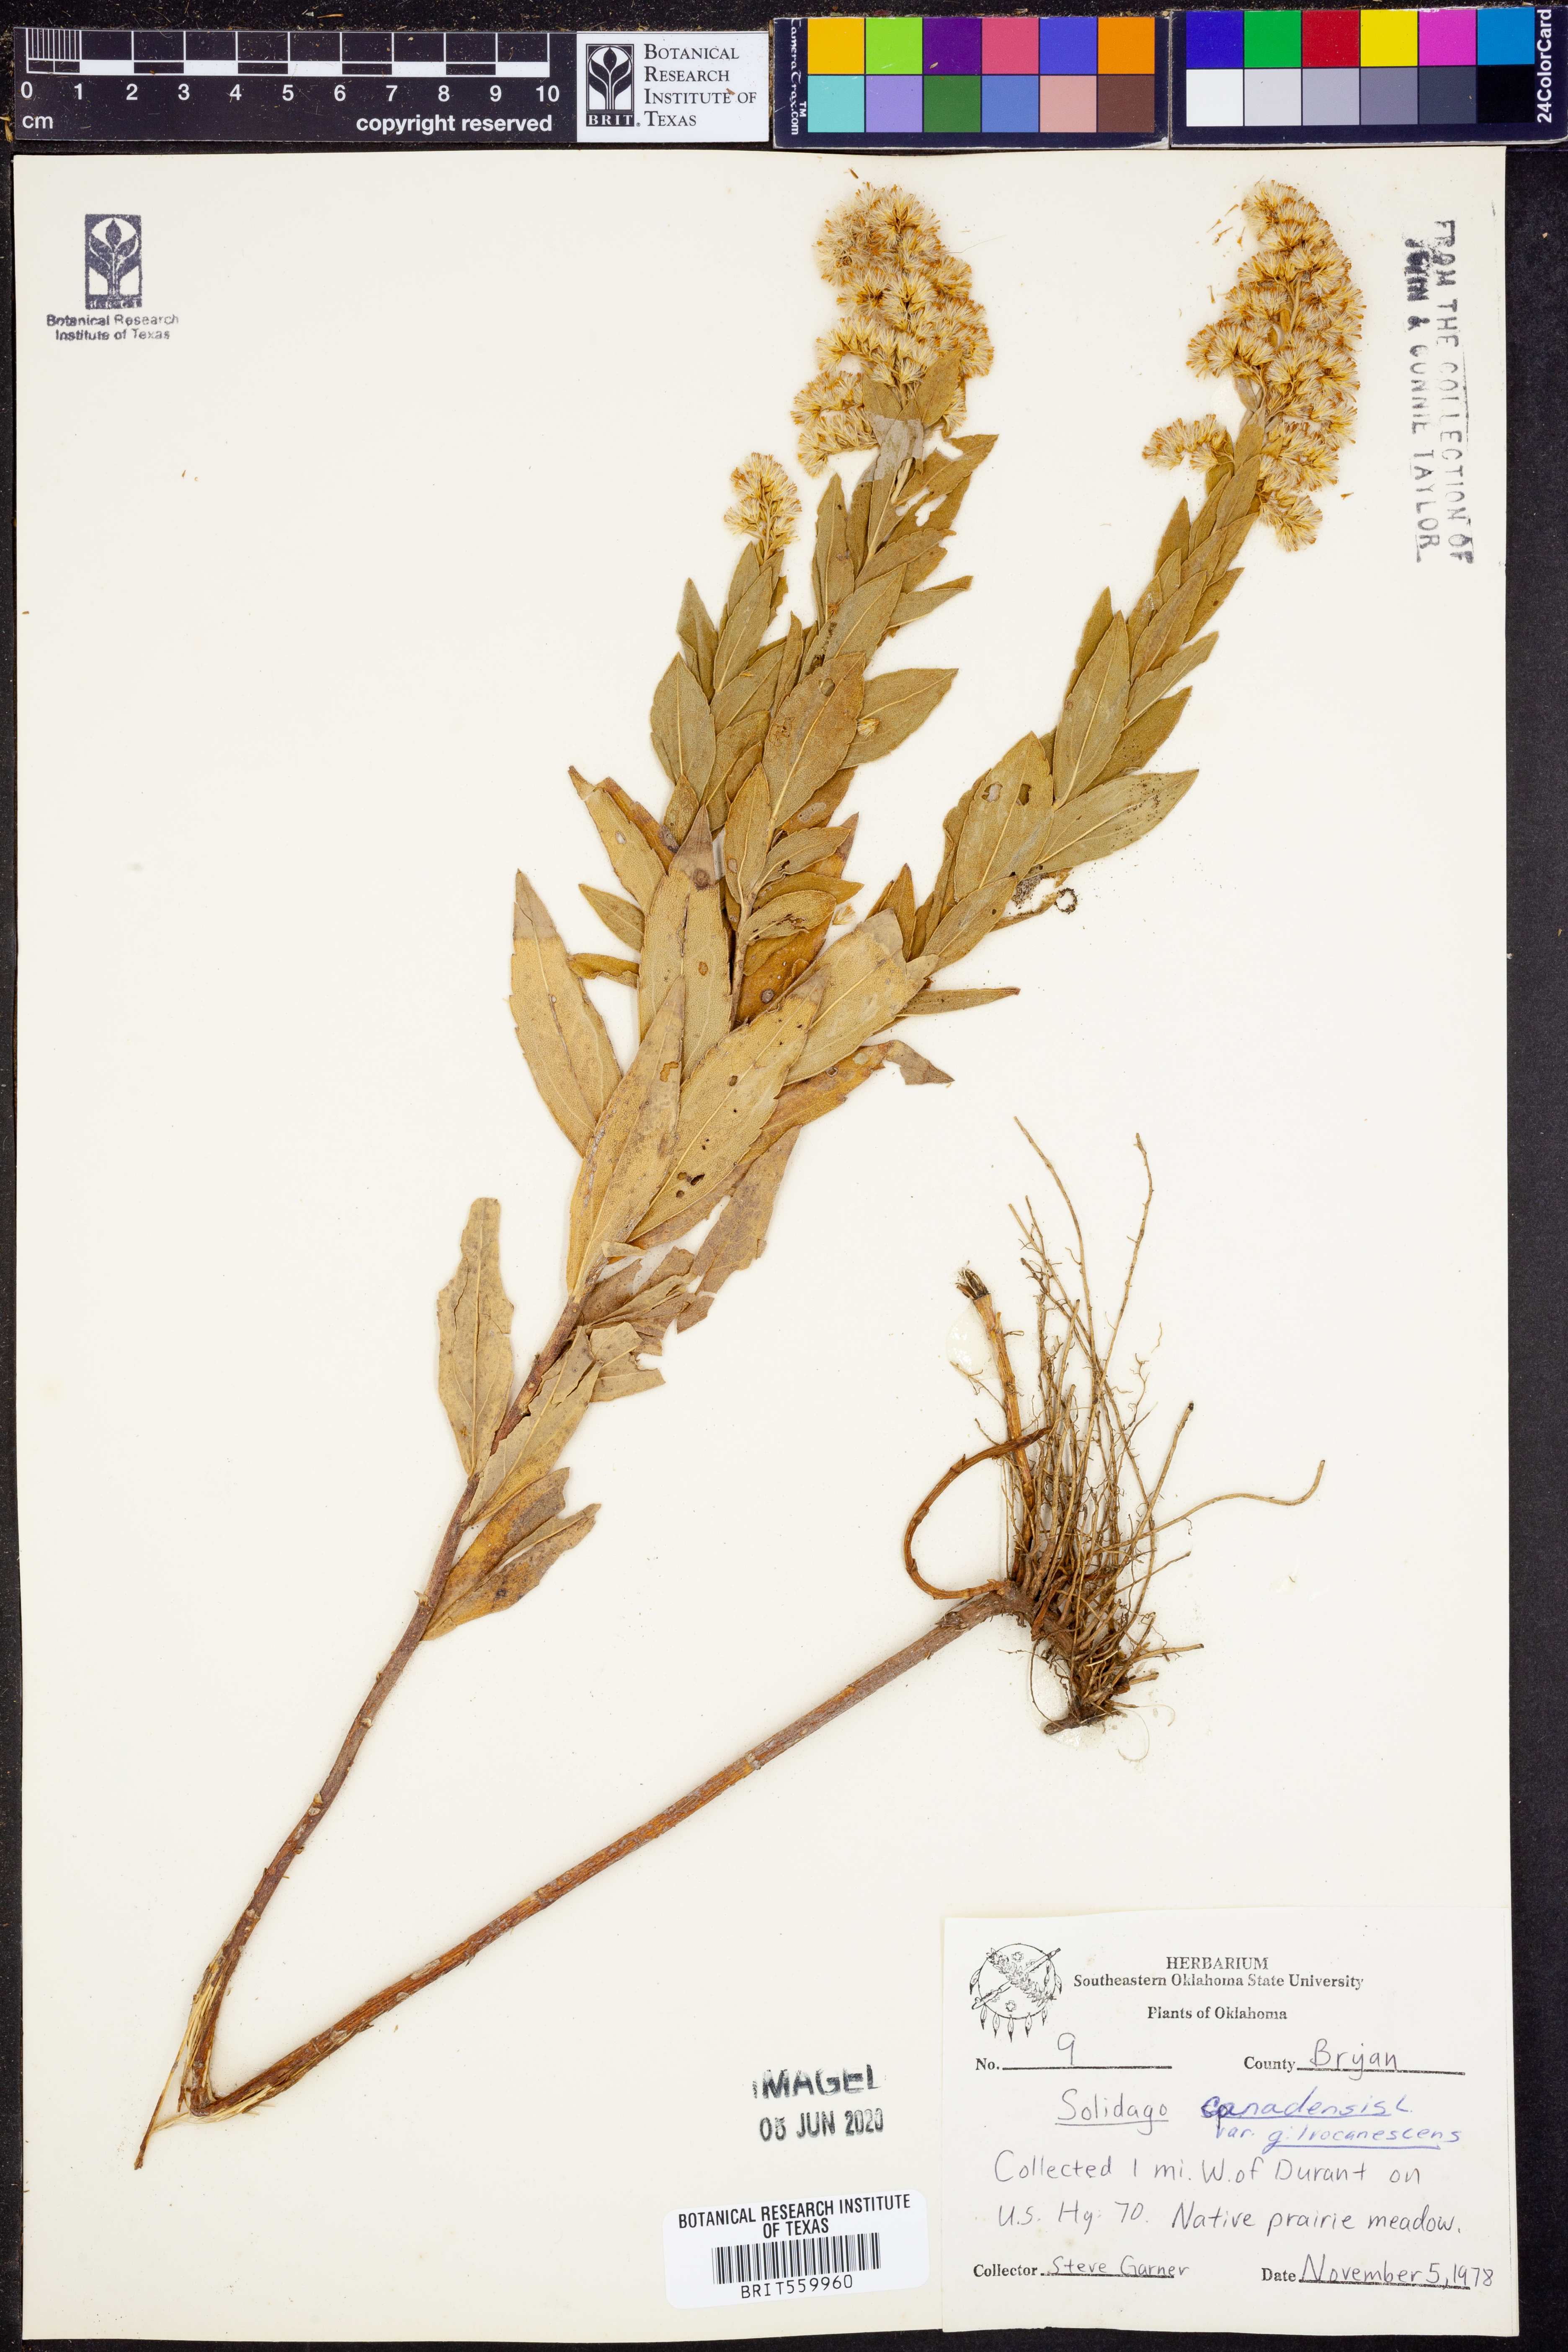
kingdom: Plantae
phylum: Tracheophyta
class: Magnoliopsida
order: Asterales
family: Asteraceae
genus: Solidago
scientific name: Solidago altissima
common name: Late goldenrod
